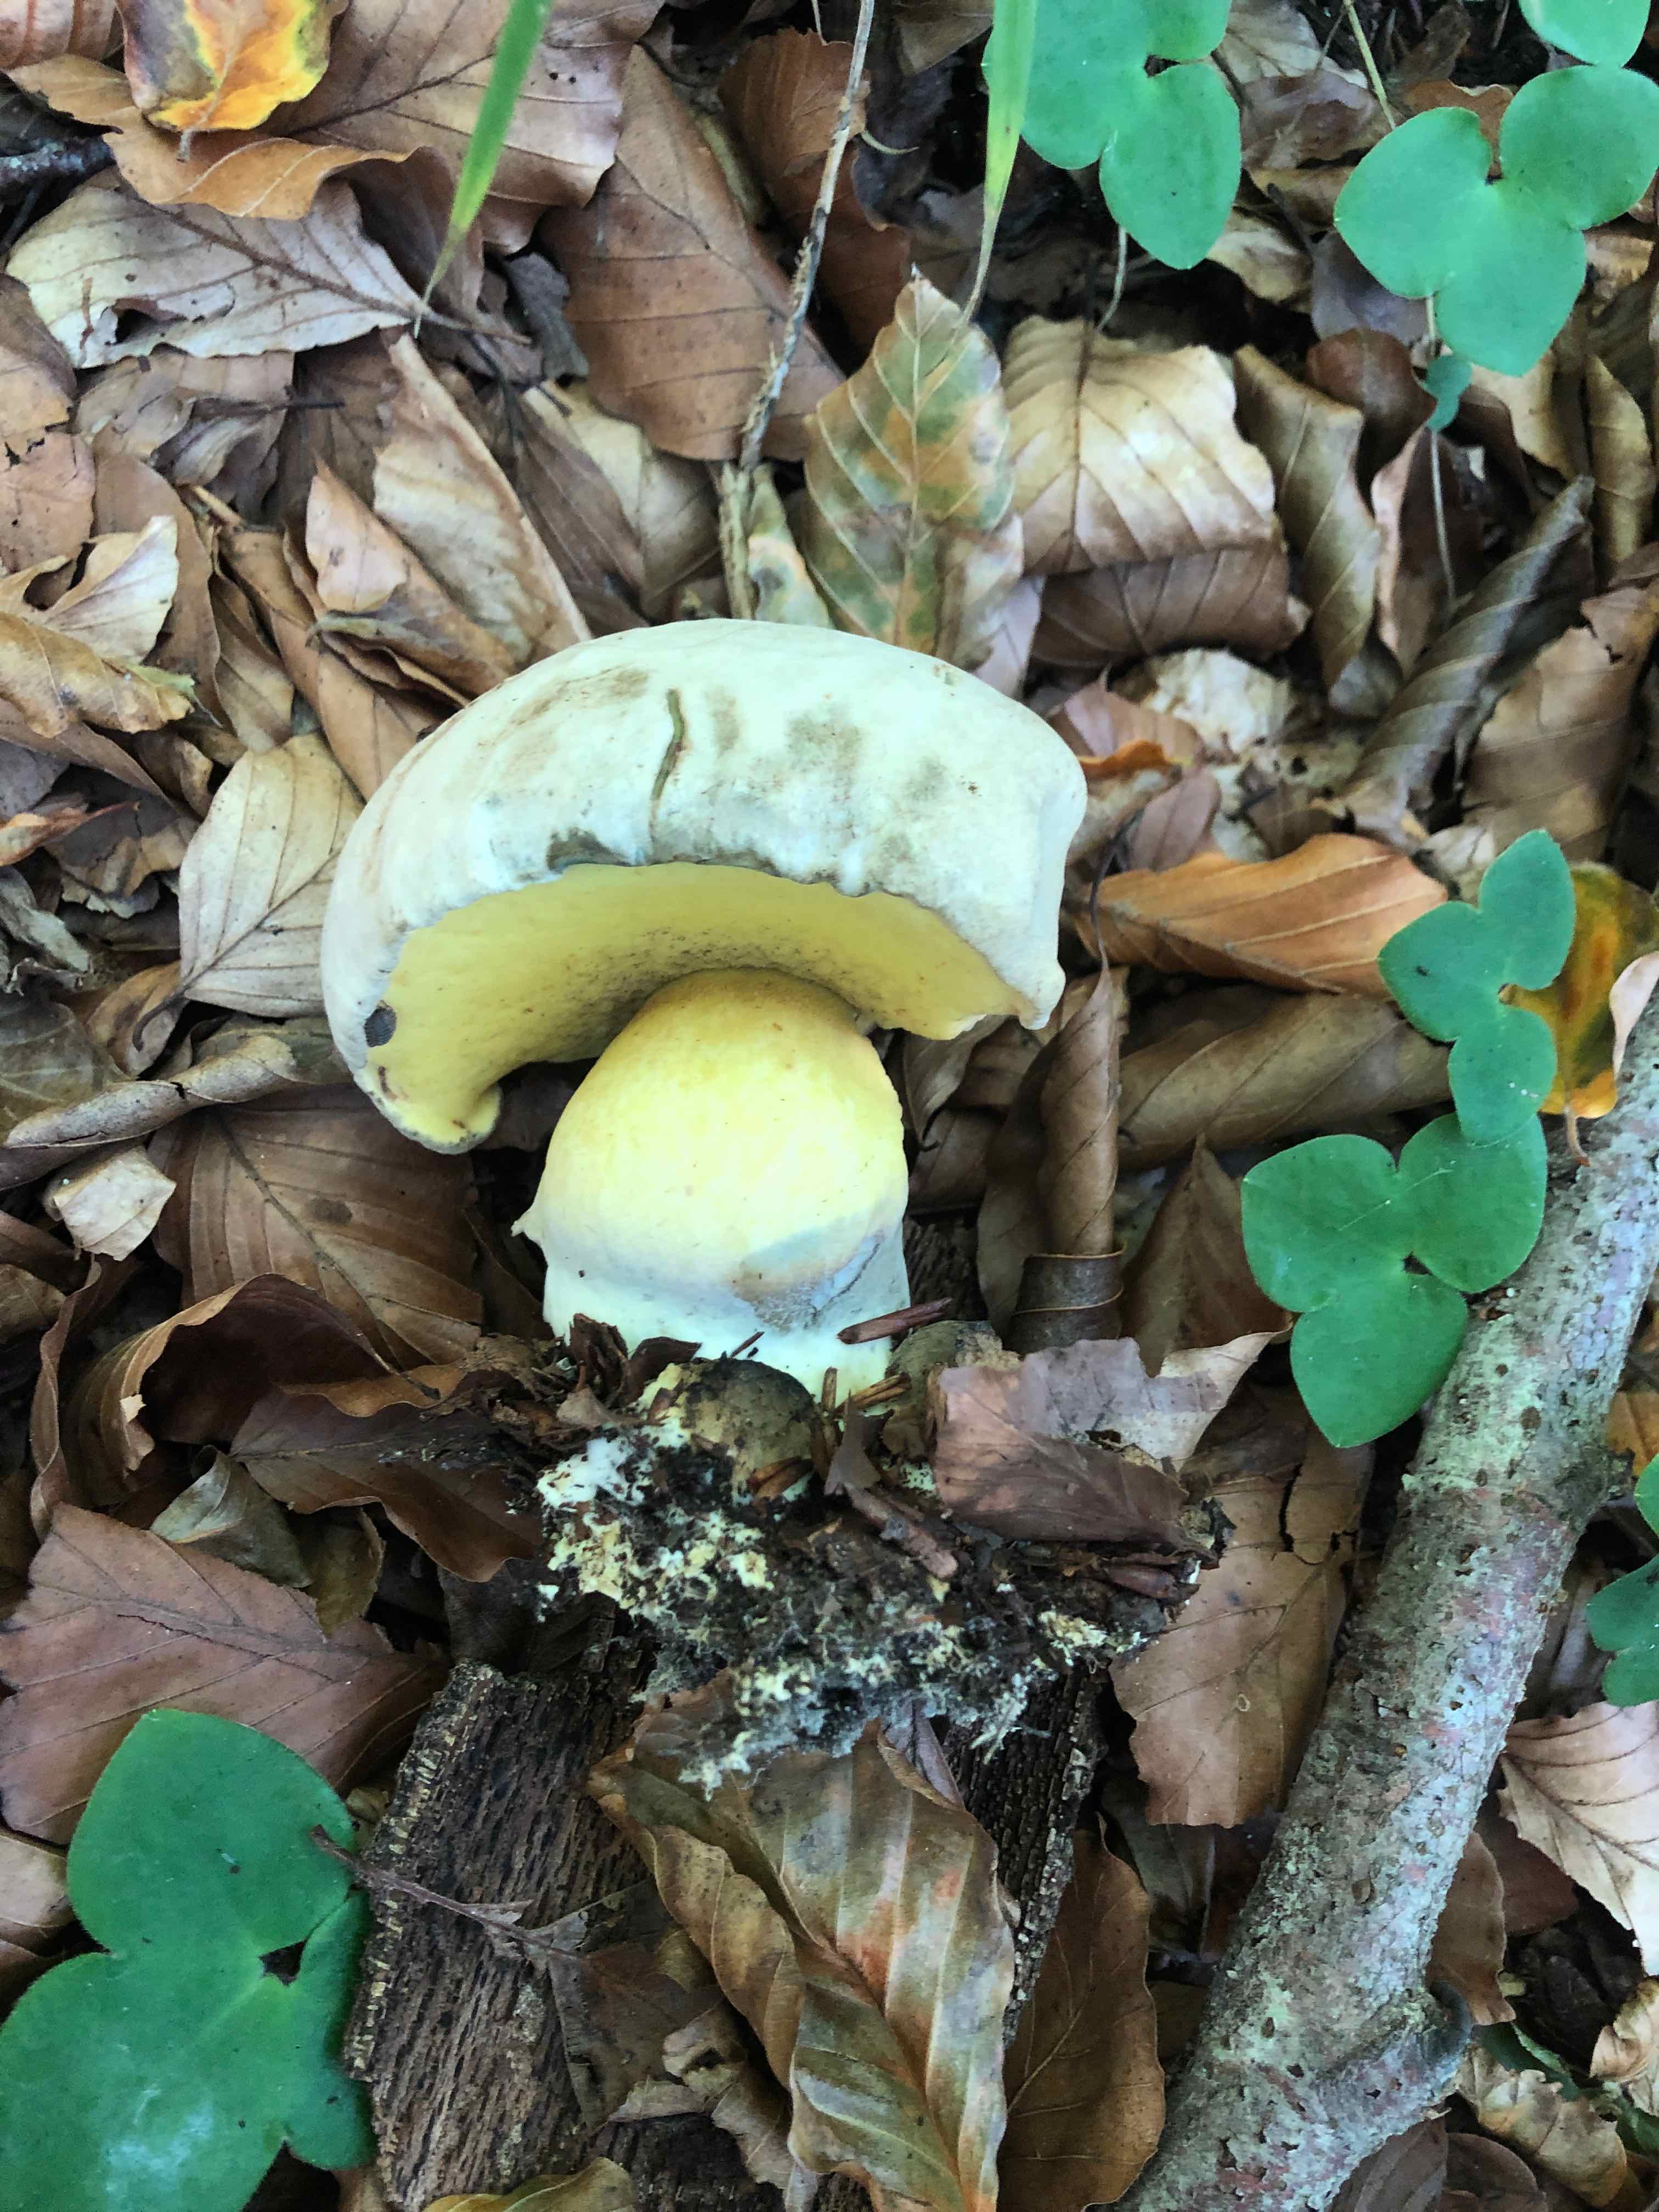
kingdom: Fungi
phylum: Basidiomycota
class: Agaricomycetes
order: Boletales
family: Boletaceae
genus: Caloboletus
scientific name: Caloboletus radicans
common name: rod-rørhat
